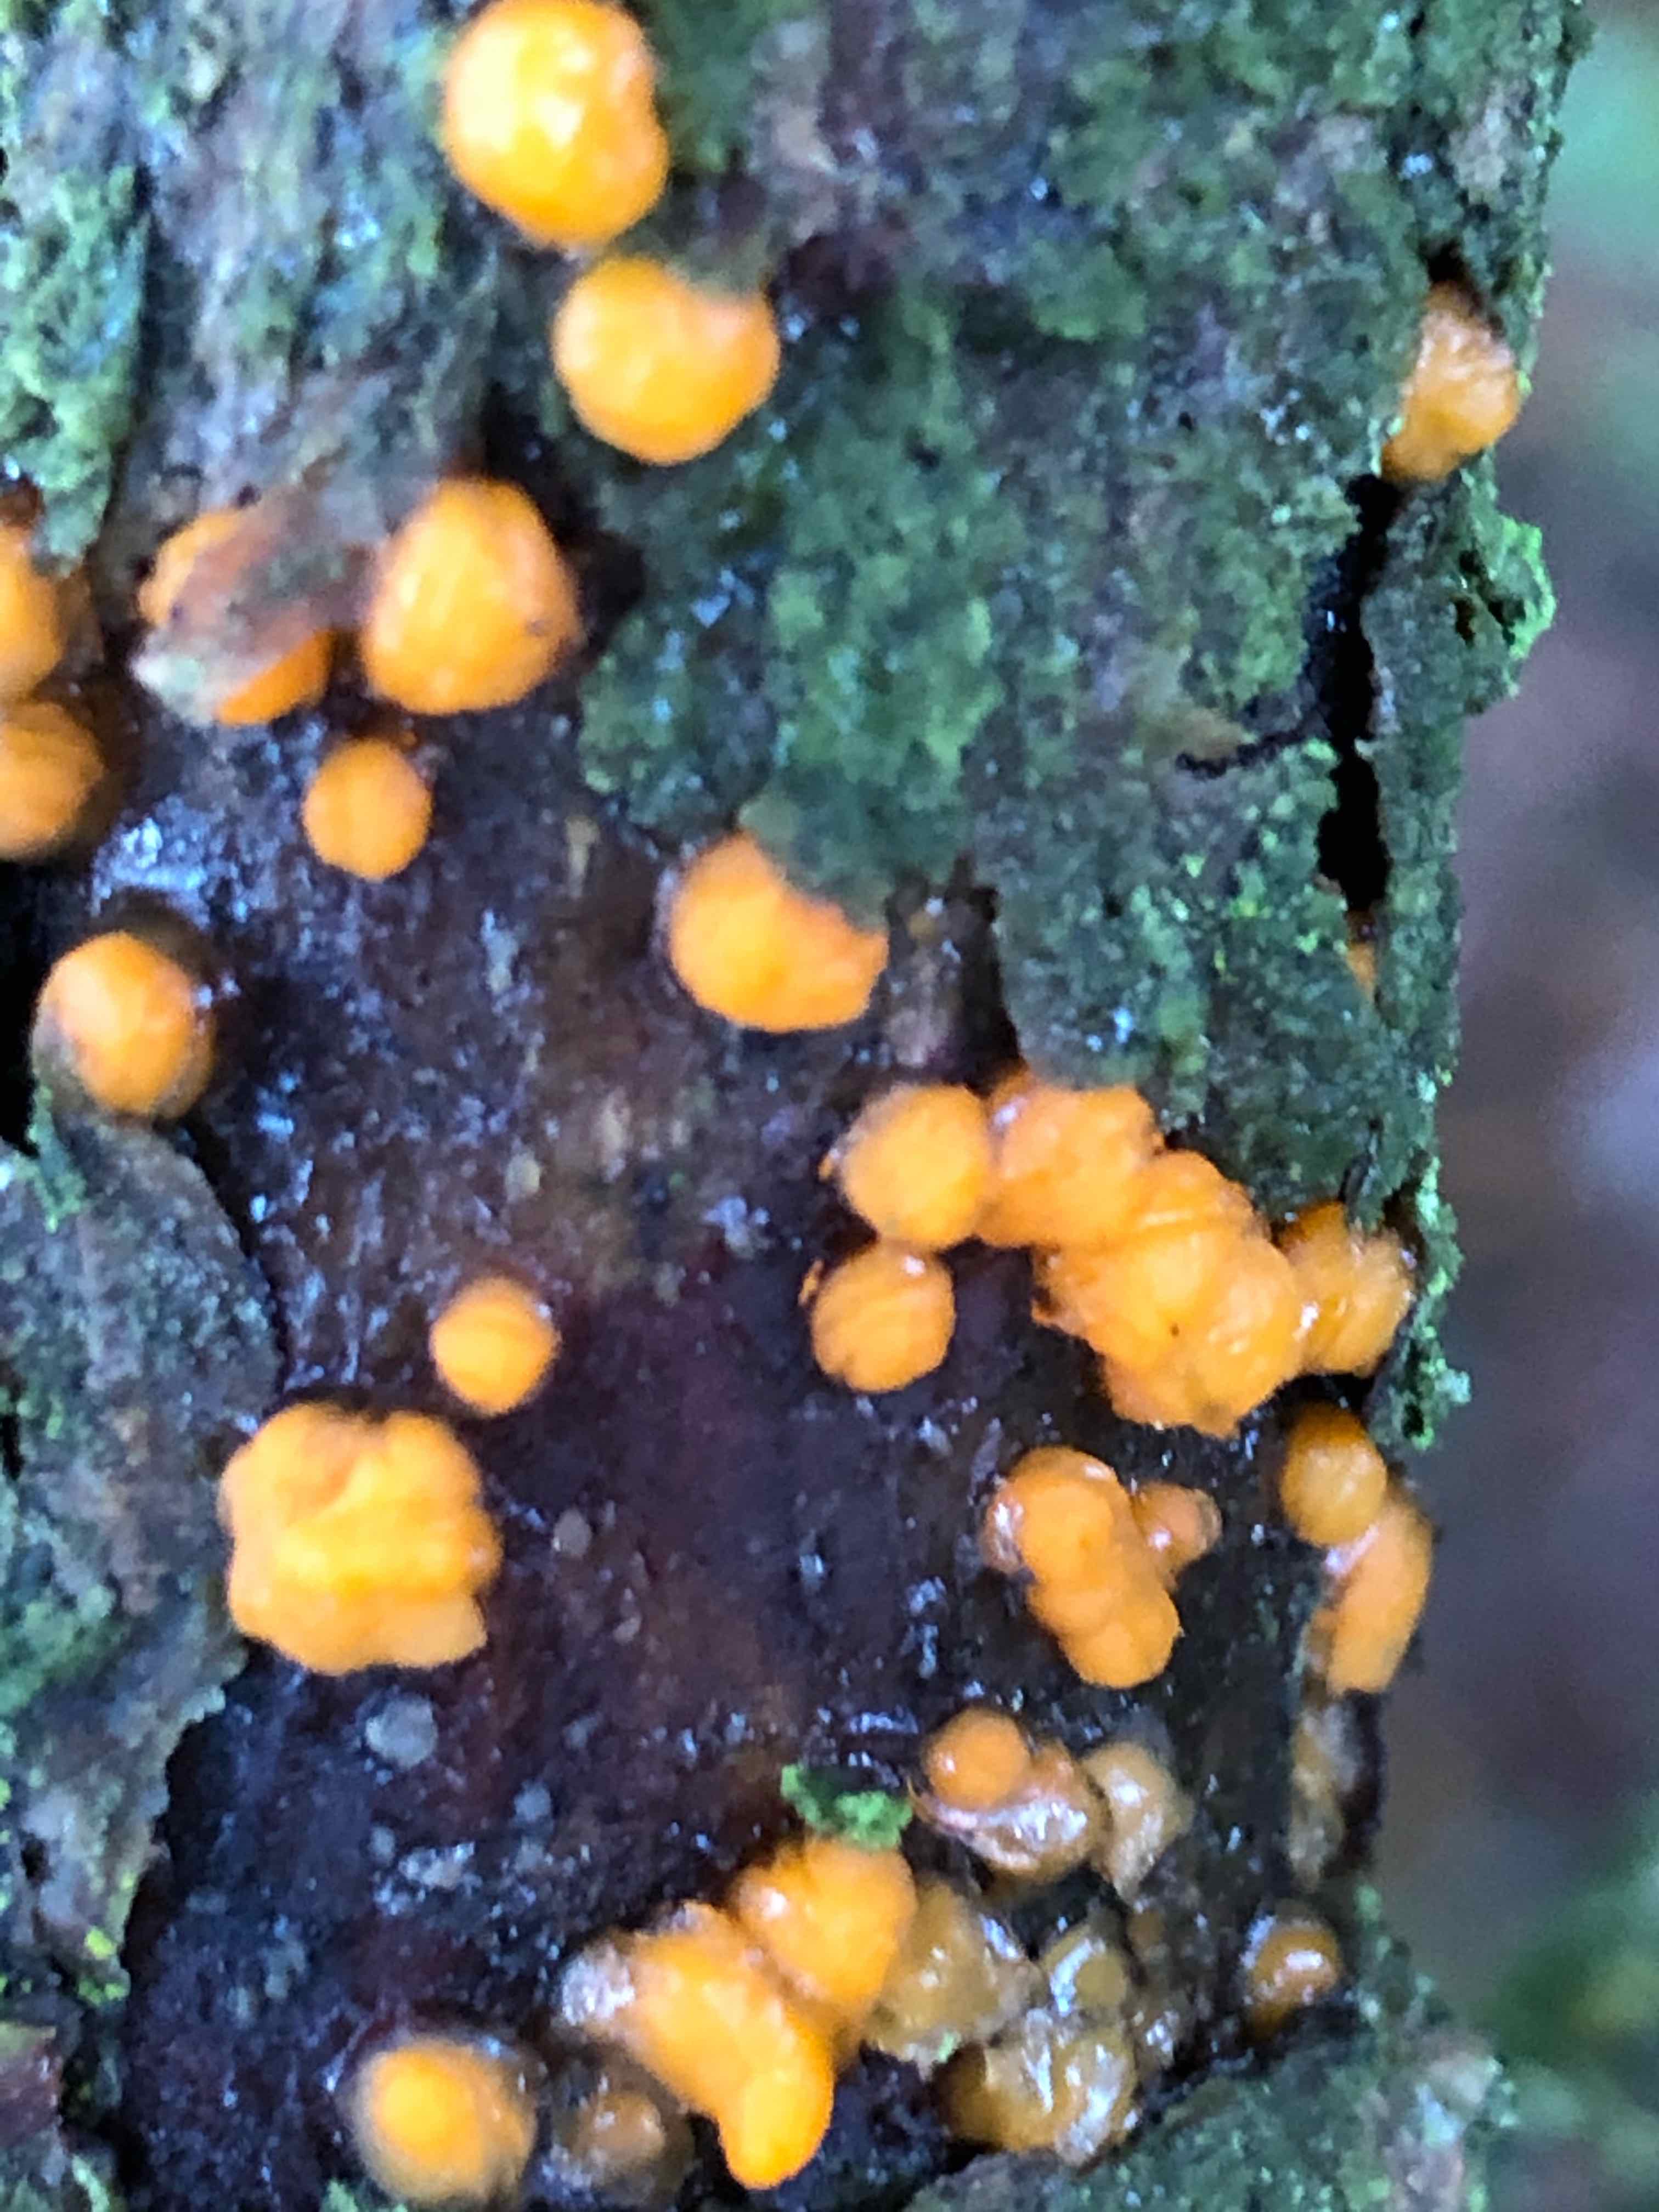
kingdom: Fungi
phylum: Basidiomycota
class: Dacrymycetes
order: Dacrymycetales
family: Dacrymycetaceae
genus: Dacrymyces
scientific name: Dacrymyces stillatus
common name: almindelig tåresvamp
